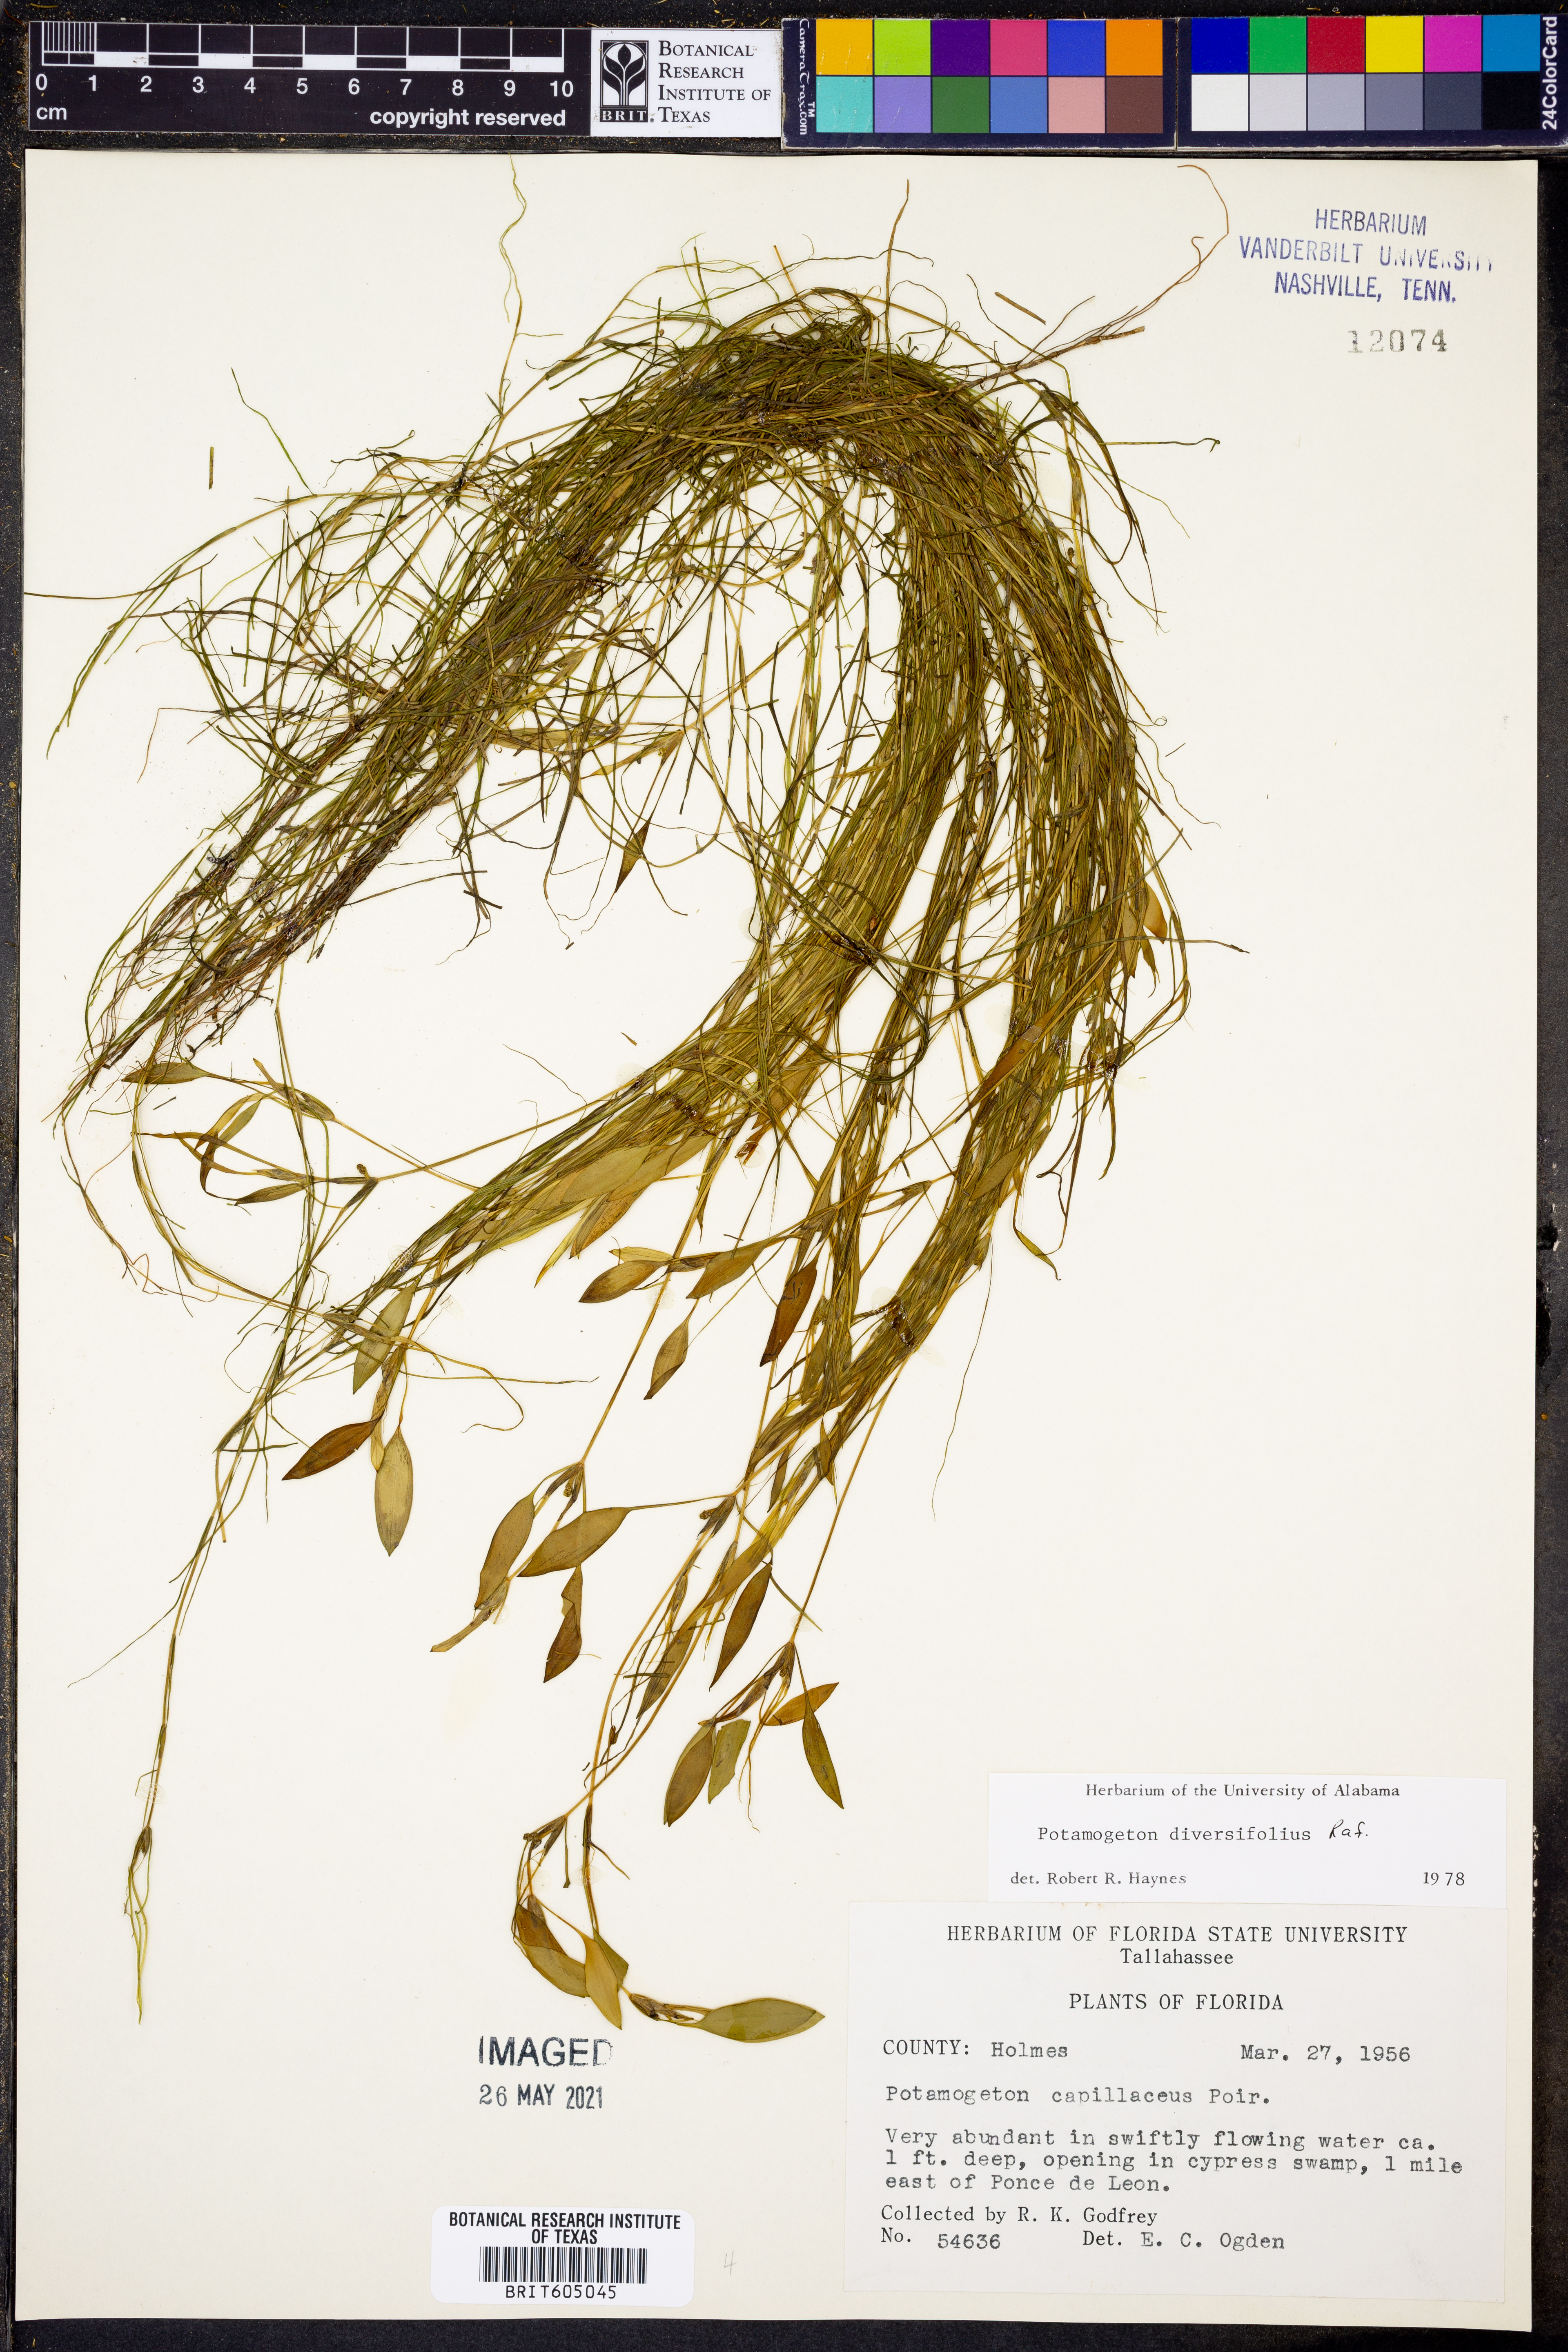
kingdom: Plantae
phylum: Tracheophyta
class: Liliopsida
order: Alismatales
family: Potamogetonaceae
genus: Potamogeton
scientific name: Potamogeton diversifolius
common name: Water-thread pondweed
